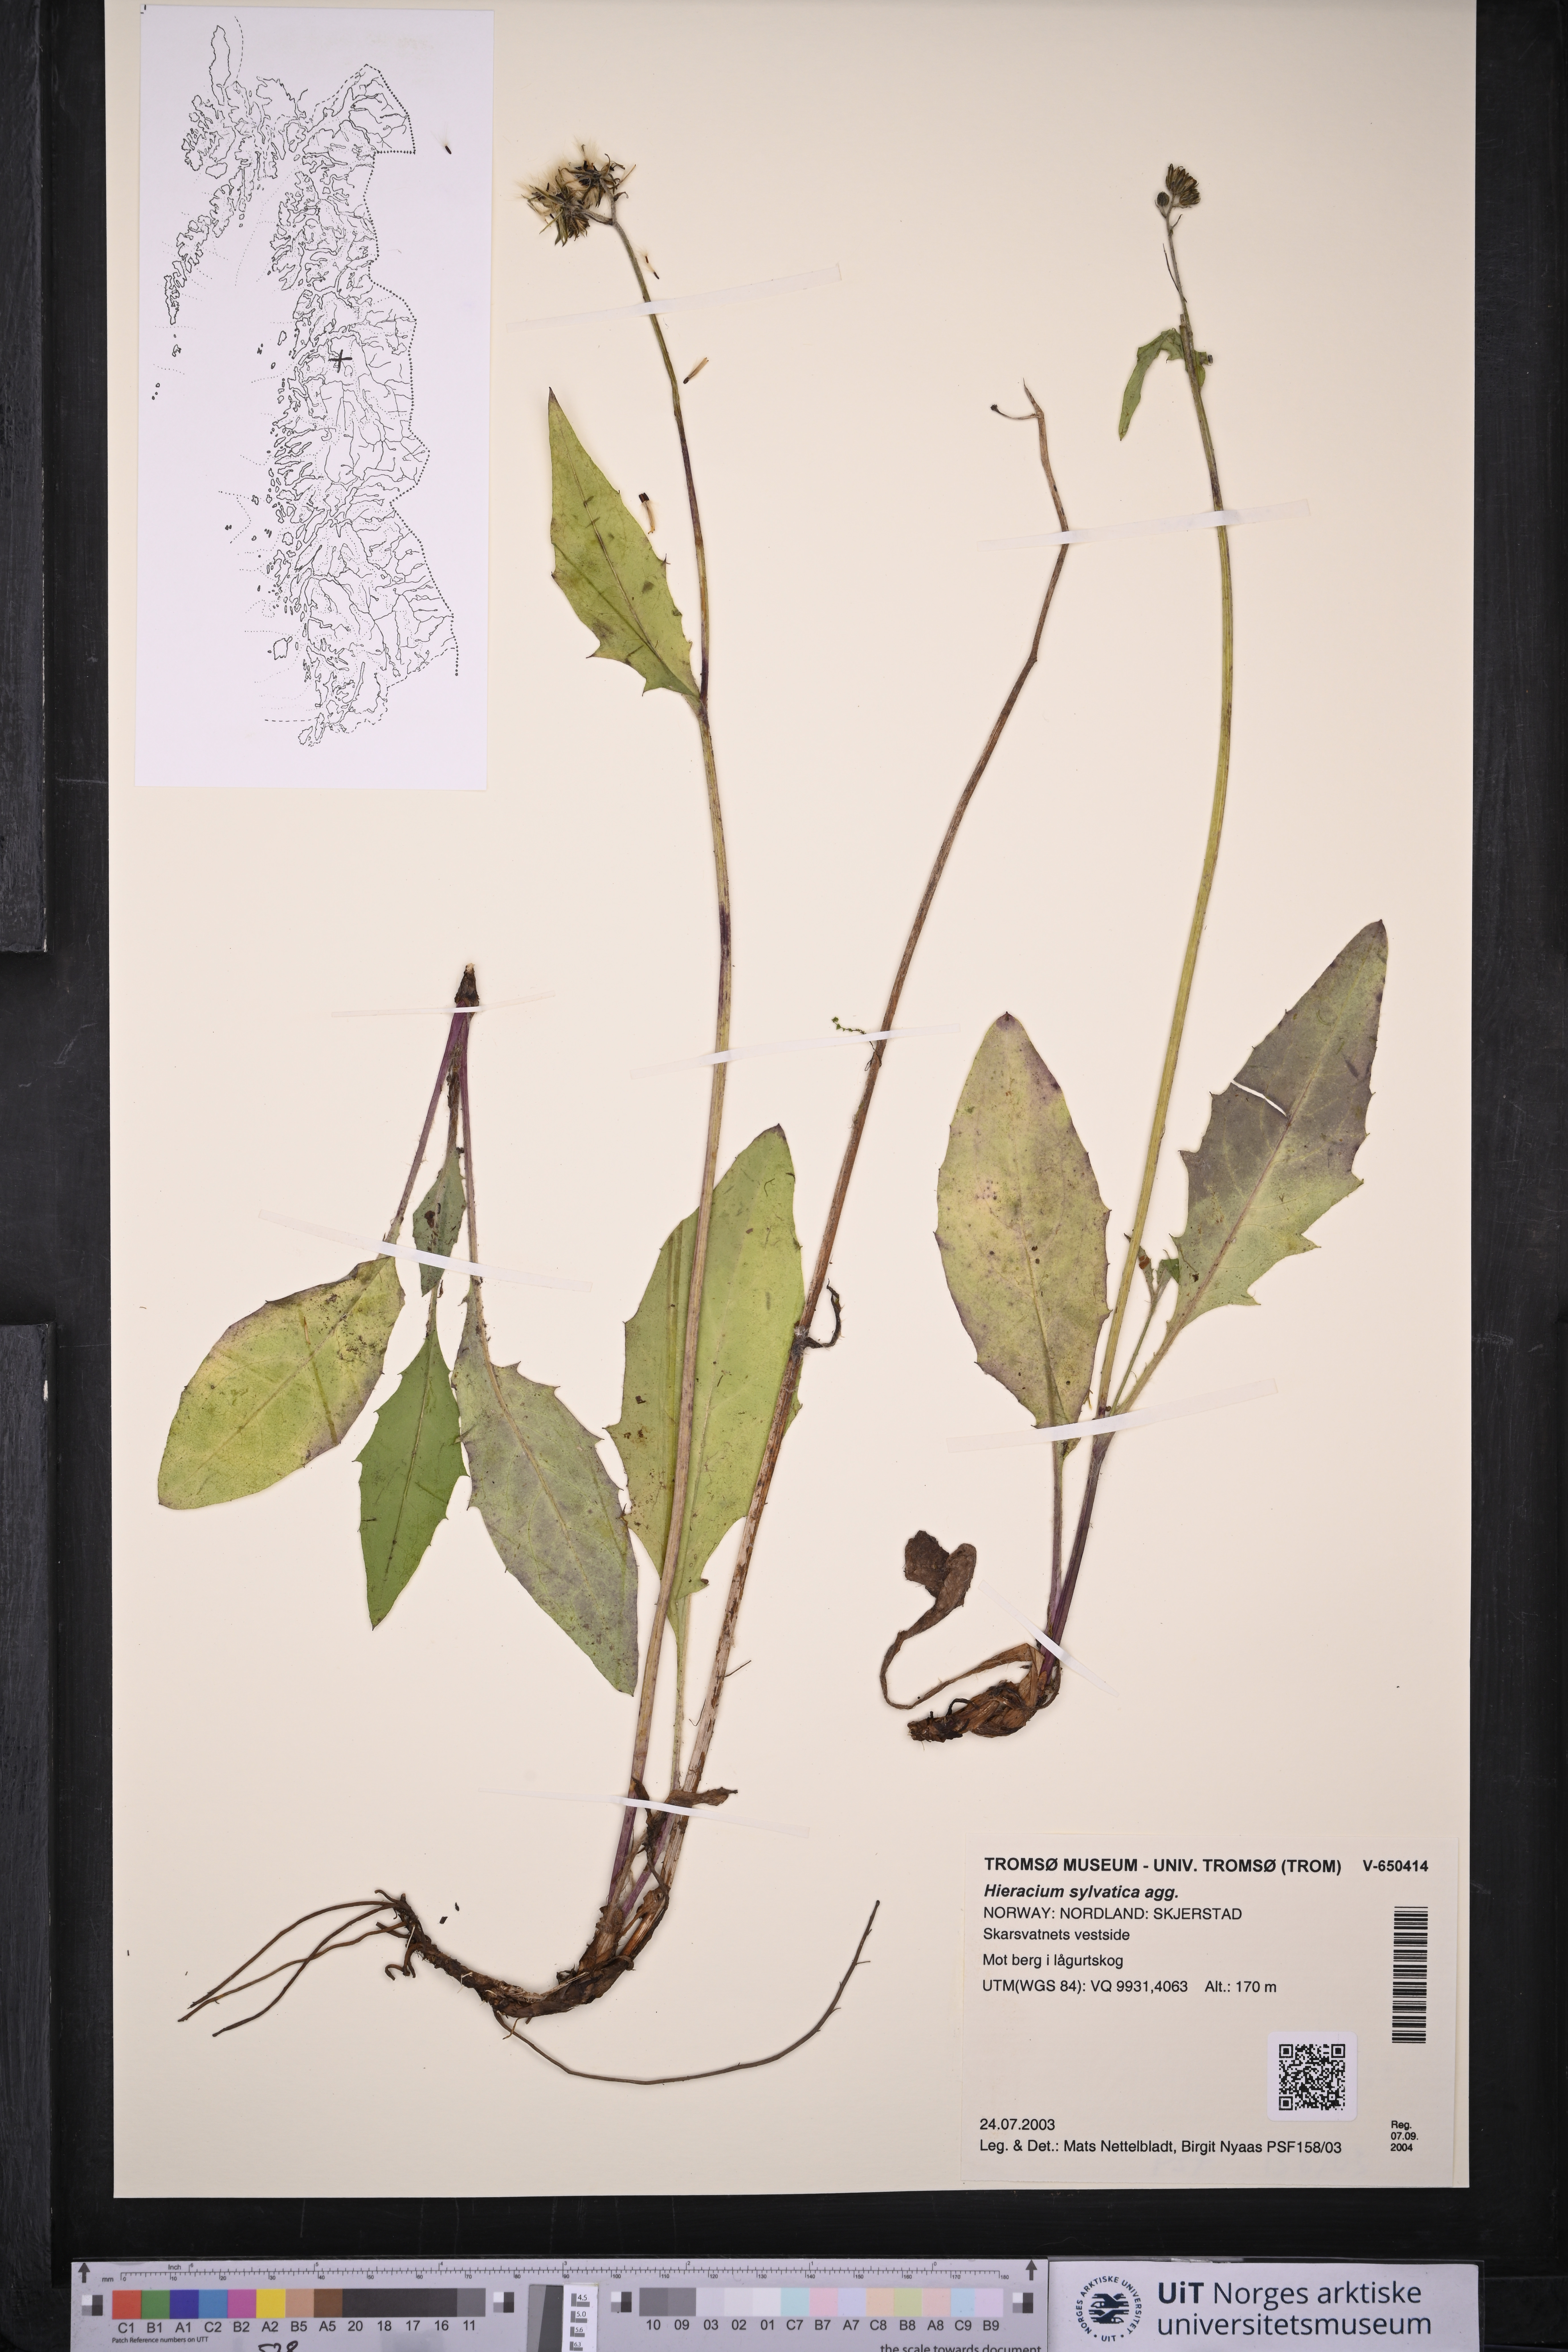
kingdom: Plantae
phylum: Tracheophyta
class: Magnoliopsida
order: Asterales
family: Asteraceae
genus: Hieracium
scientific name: Hieracium
